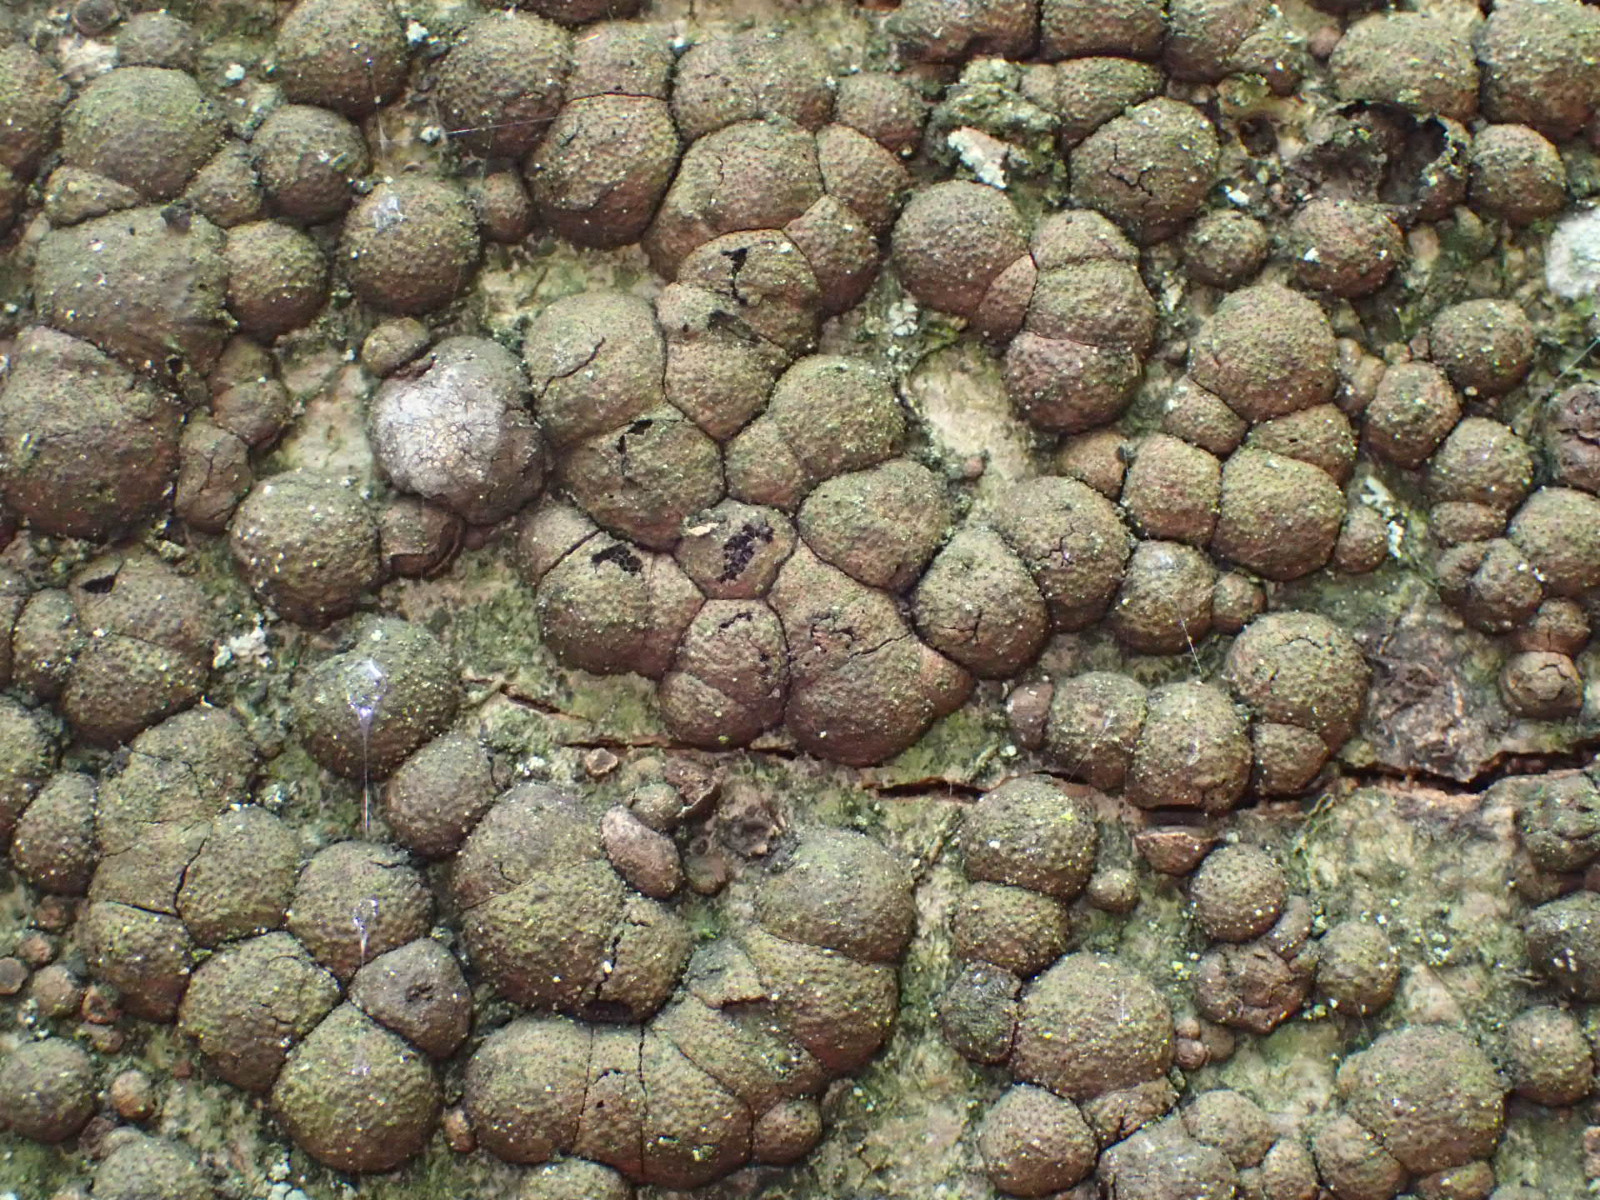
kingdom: Fungi
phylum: Ascomycota
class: Sordariomycetes
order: Xylariales
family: Hypoxylaceae
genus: Hypoxylon
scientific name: Hypoxylon fragiforme
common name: kuljordbær
